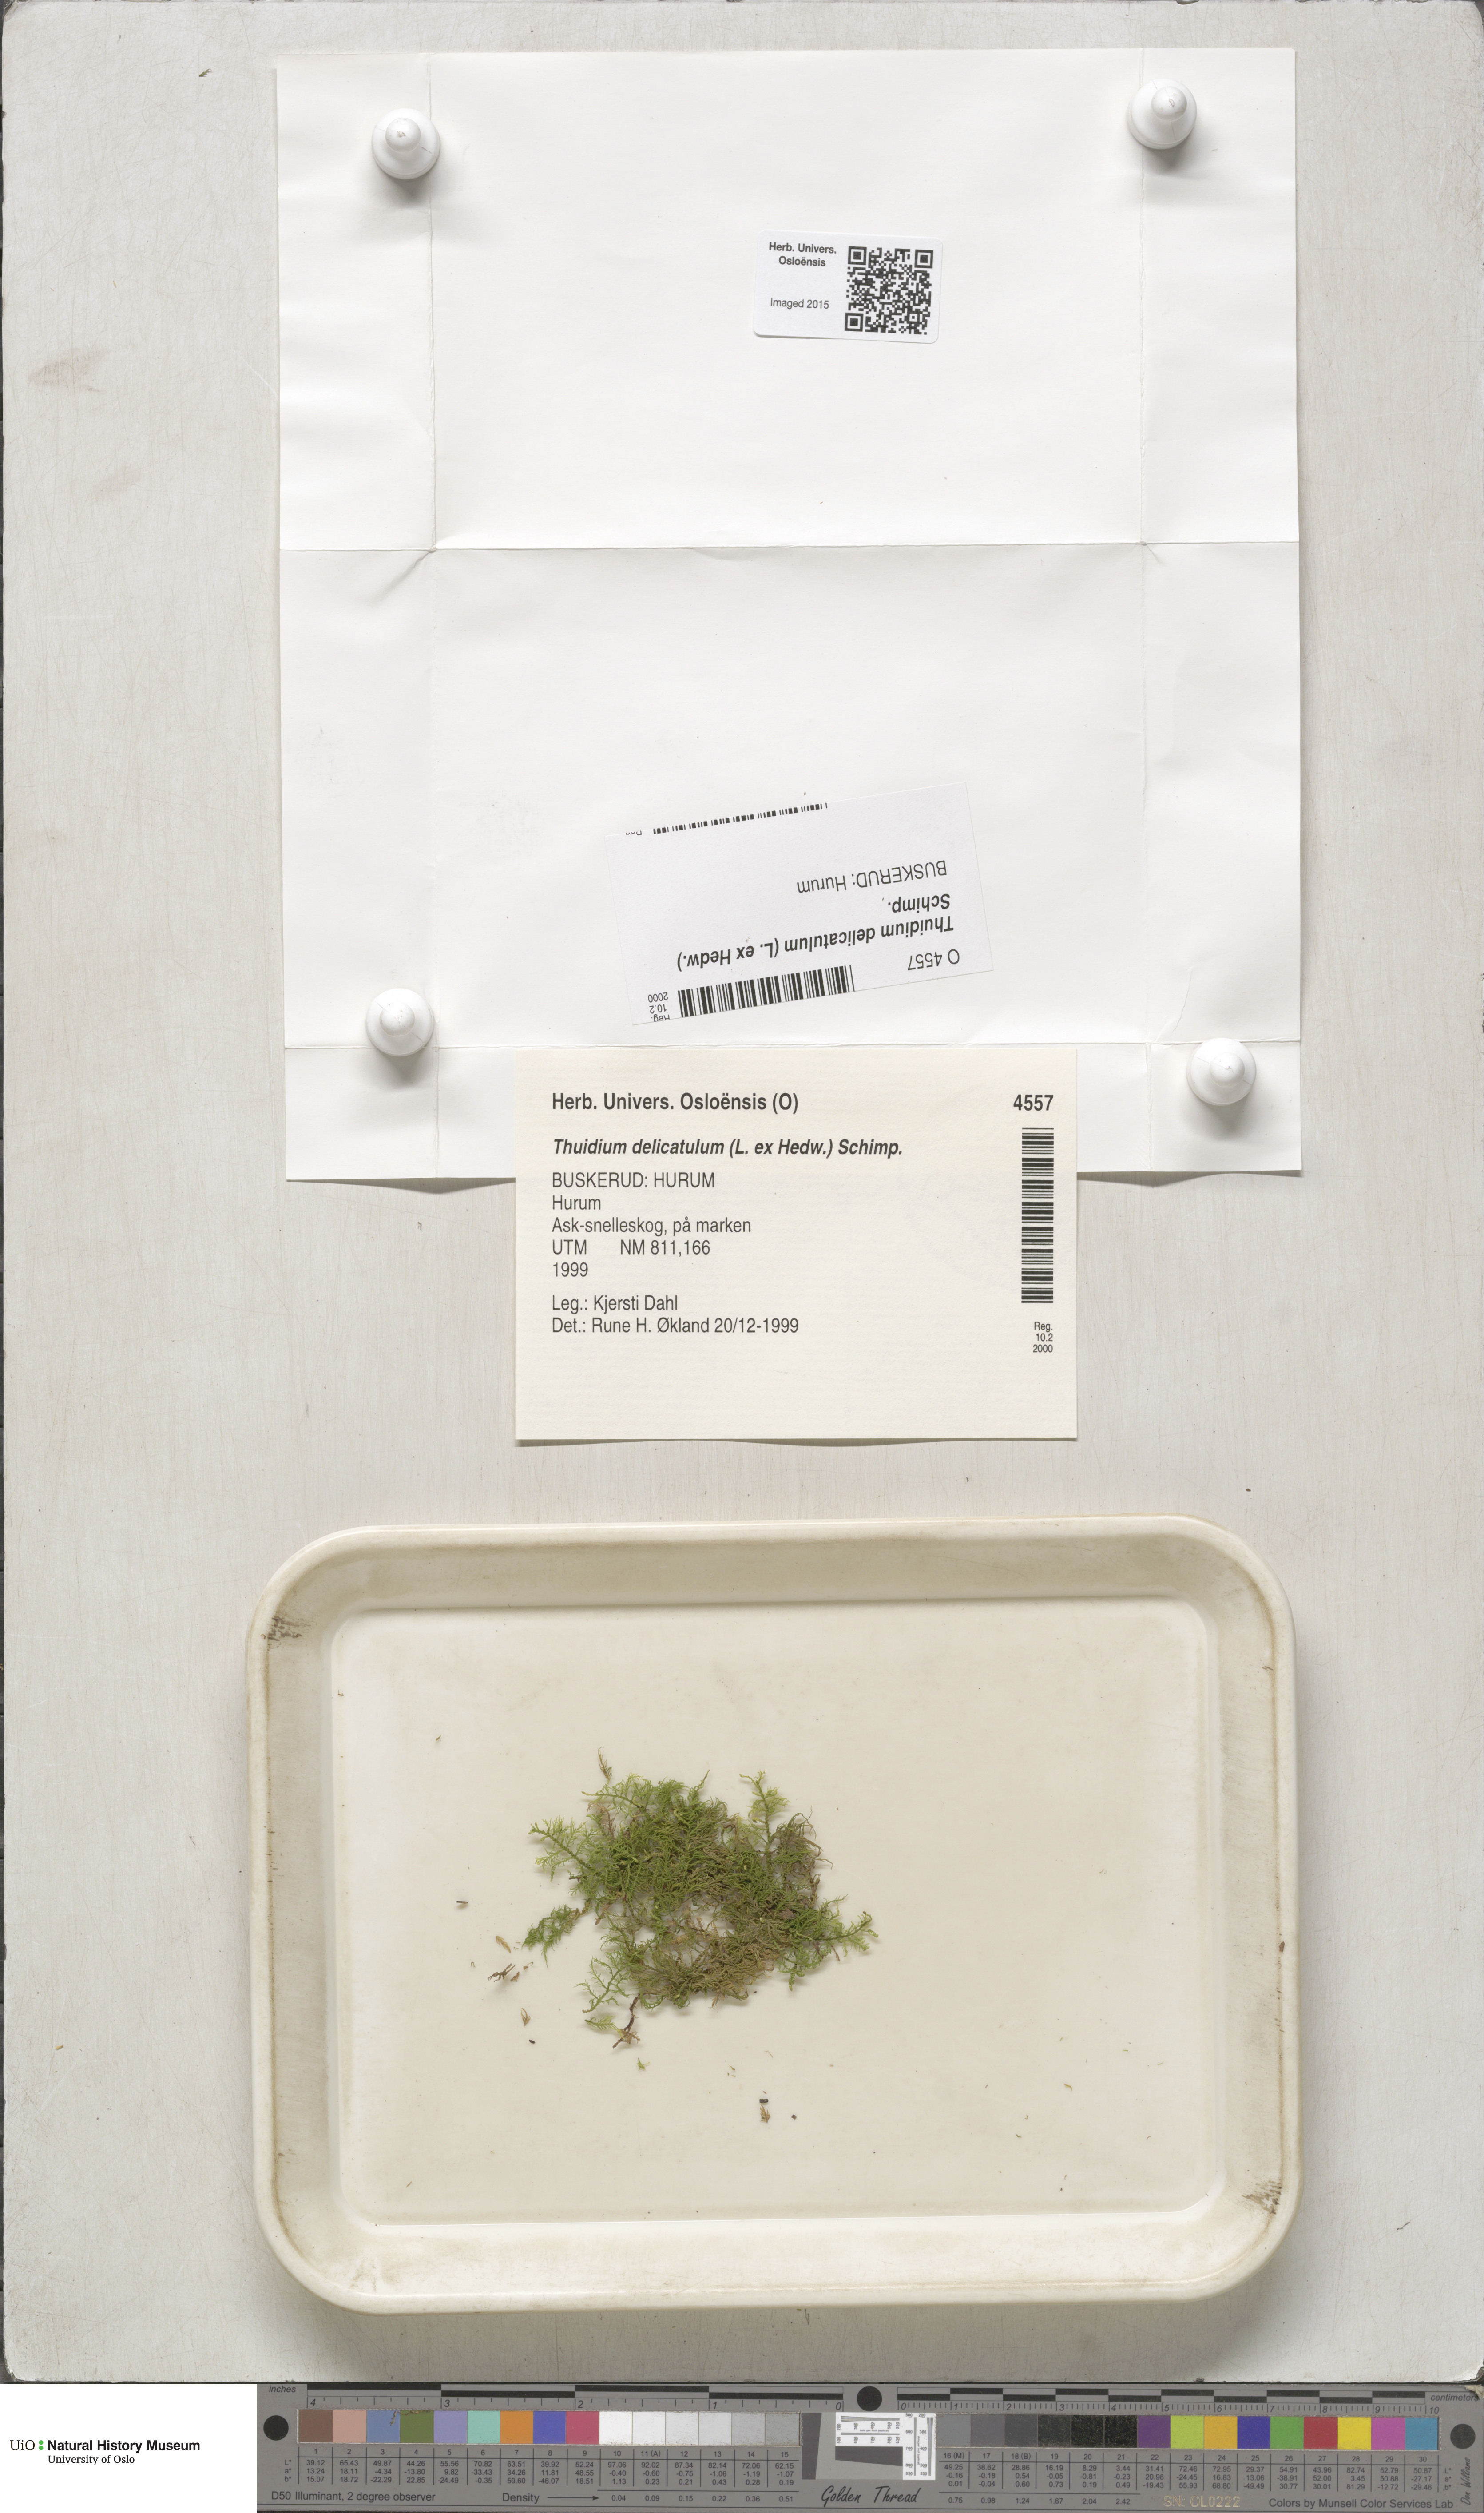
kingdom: Plantae
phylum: Bryophyta
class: Bryopsida
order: Hypnales
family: Thuidiaceae
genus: Thuidium
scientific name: Thuidium delicatulum
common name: Delicate fern moss
